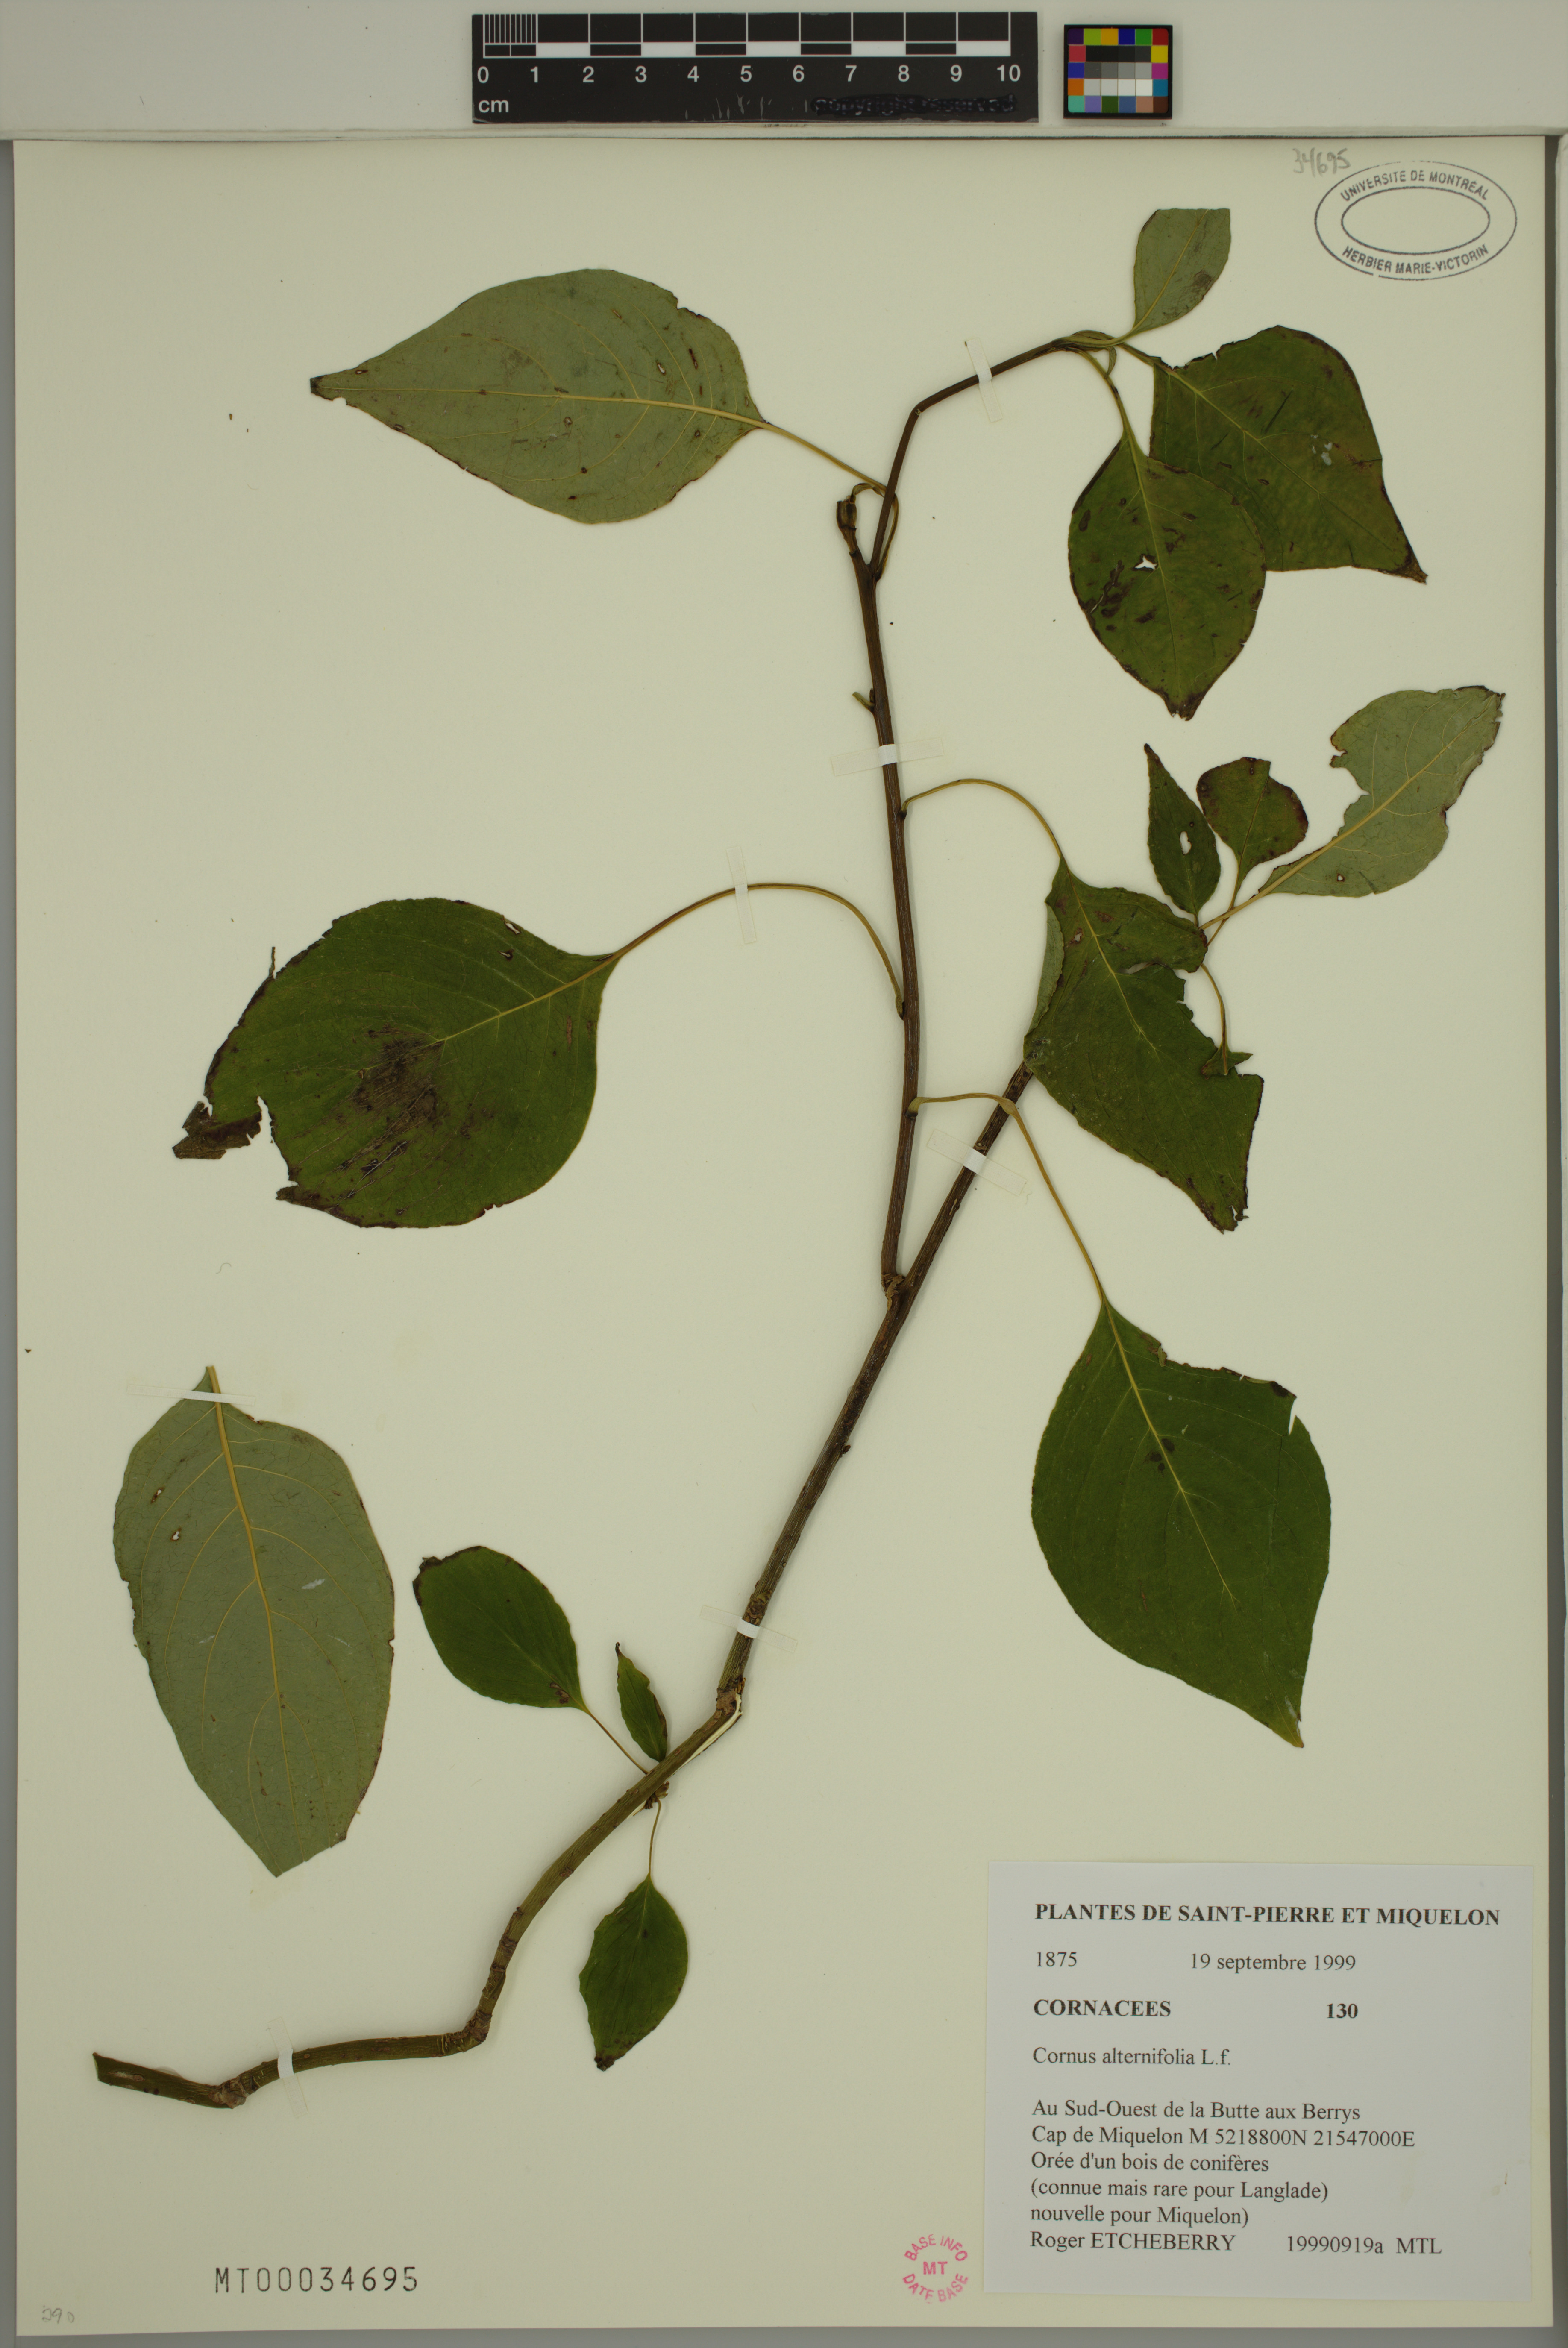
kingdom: Plantae
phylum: Tracheophyta
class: Magnoliopsida
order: Cornales
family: Cornaceae
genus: Cornus
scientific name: Cornus alternifolia
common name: Pagoda dogwood
